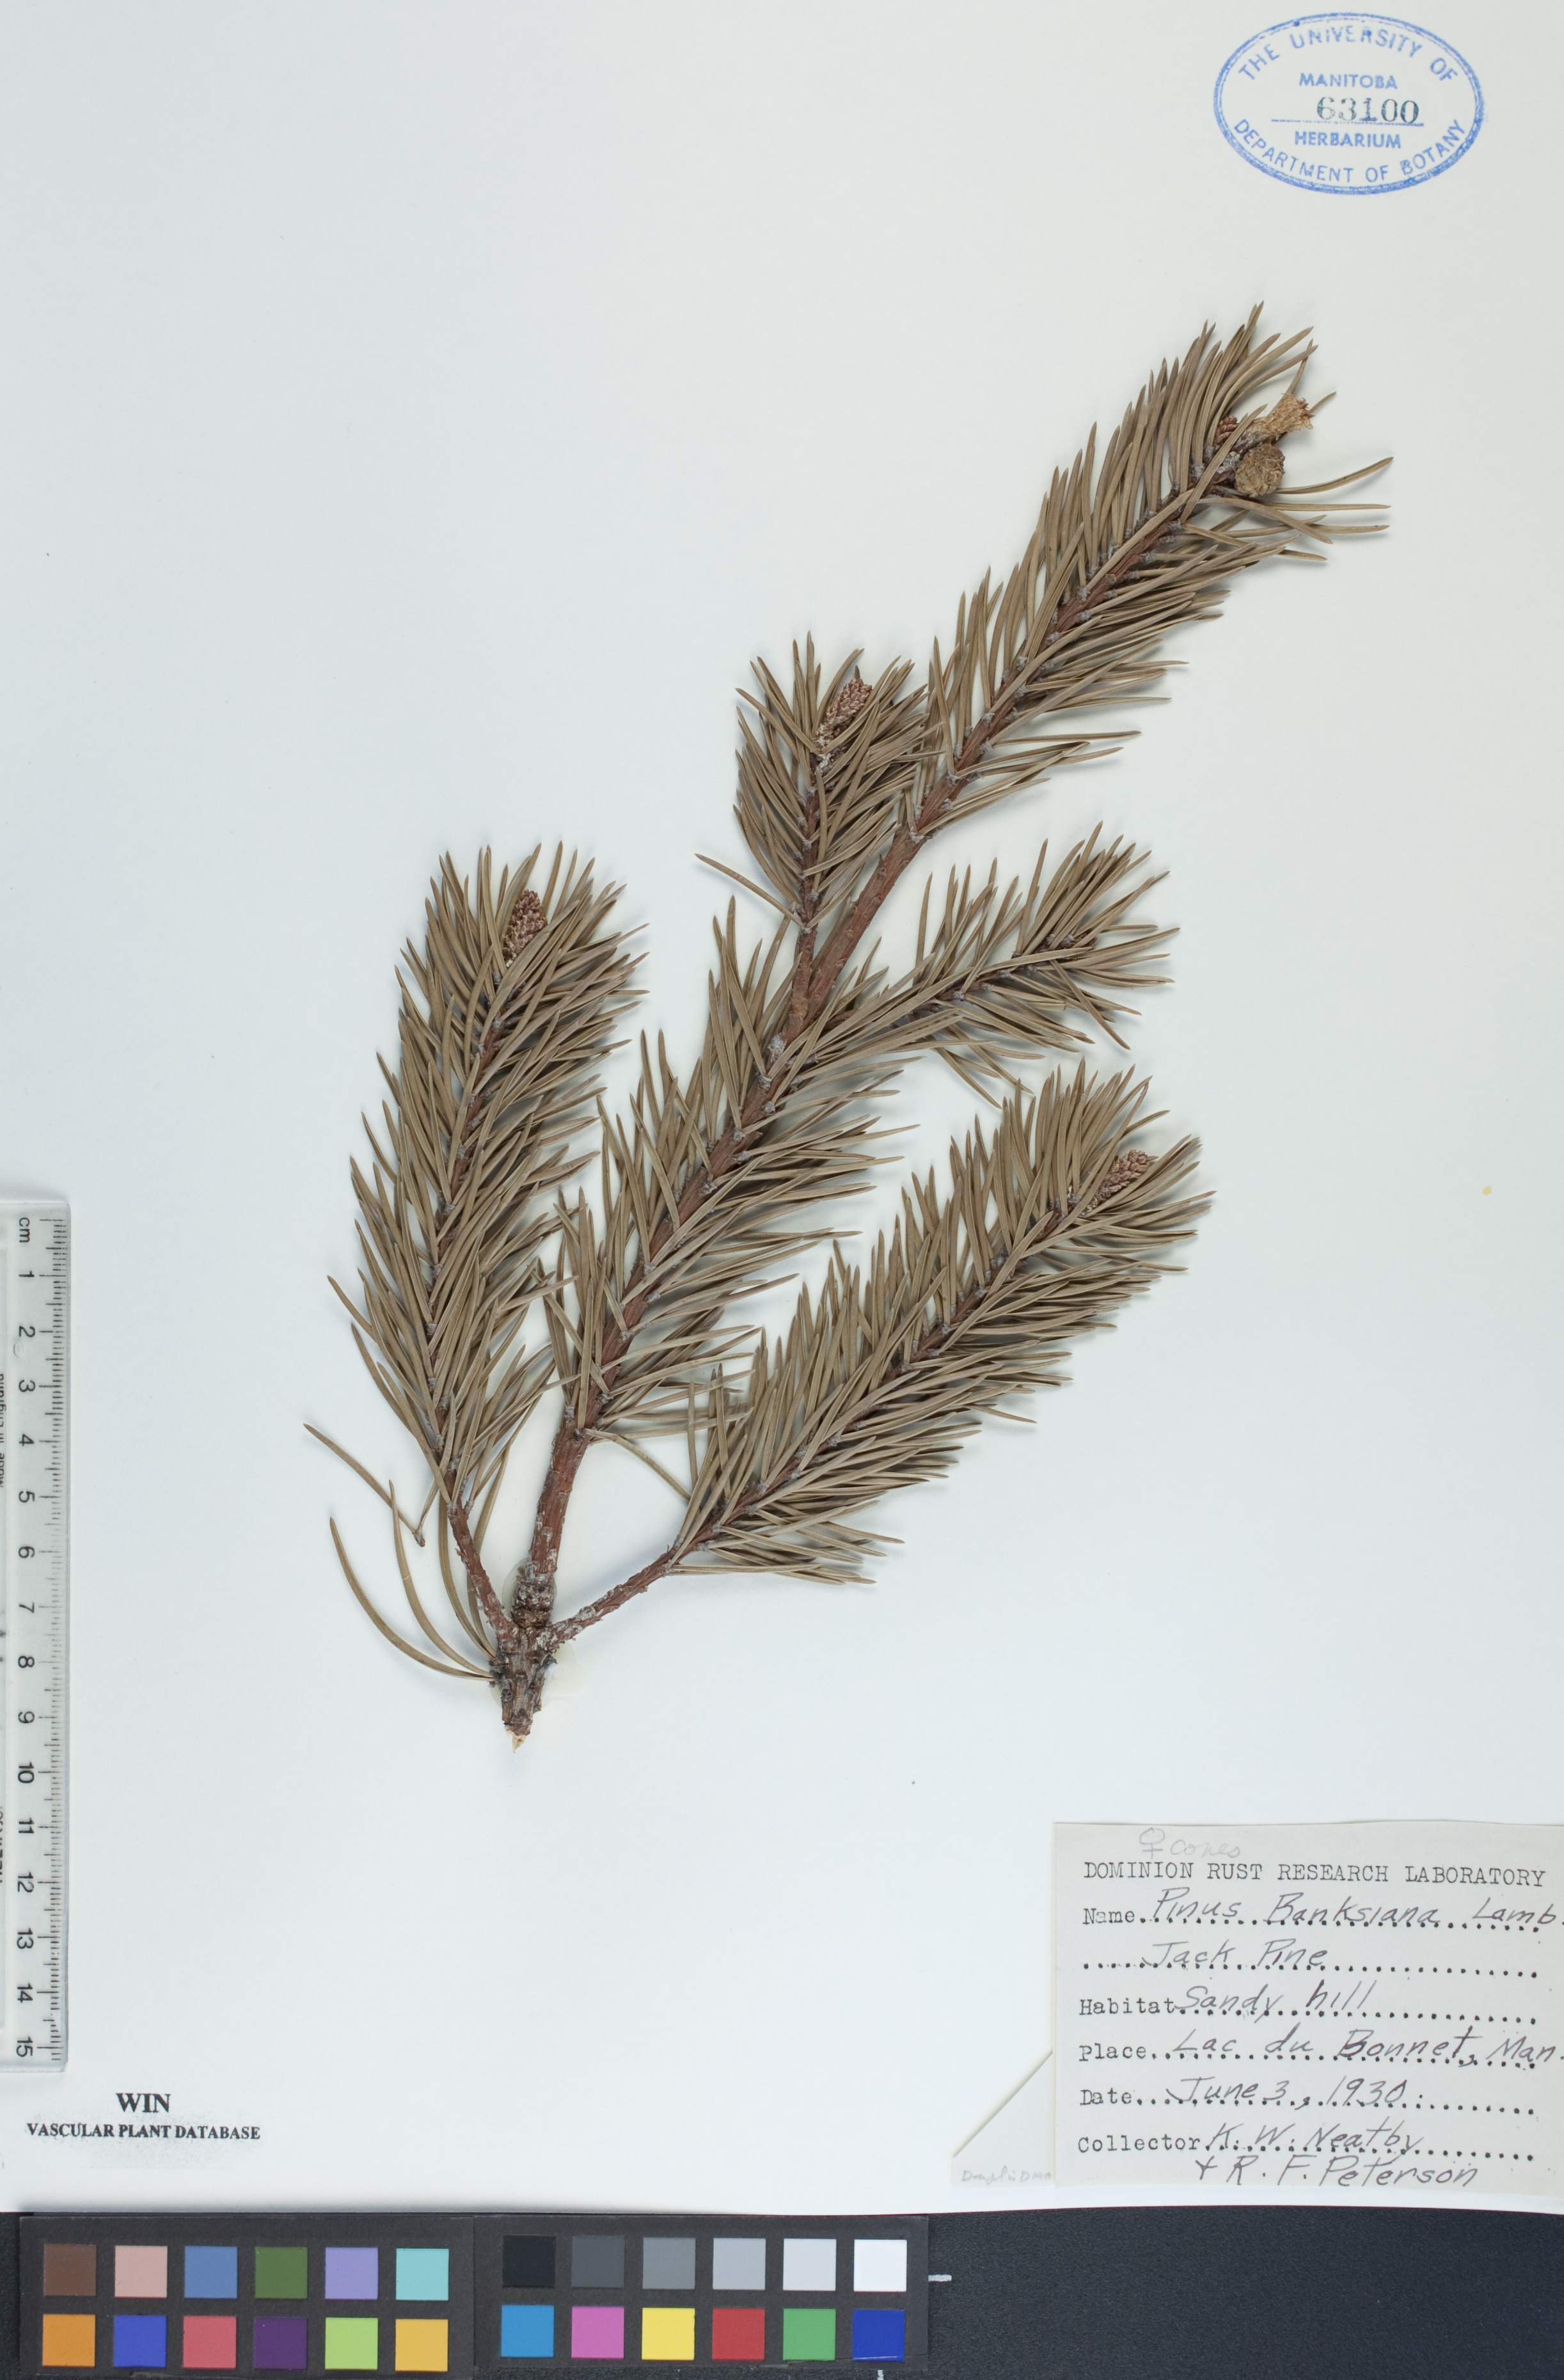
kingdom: Plantae
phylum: Tracheophyta
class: Pinopsida
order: Pinales
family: Pinaceae
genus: Pinus
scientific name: Pinus banksiana
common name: Jack pine
